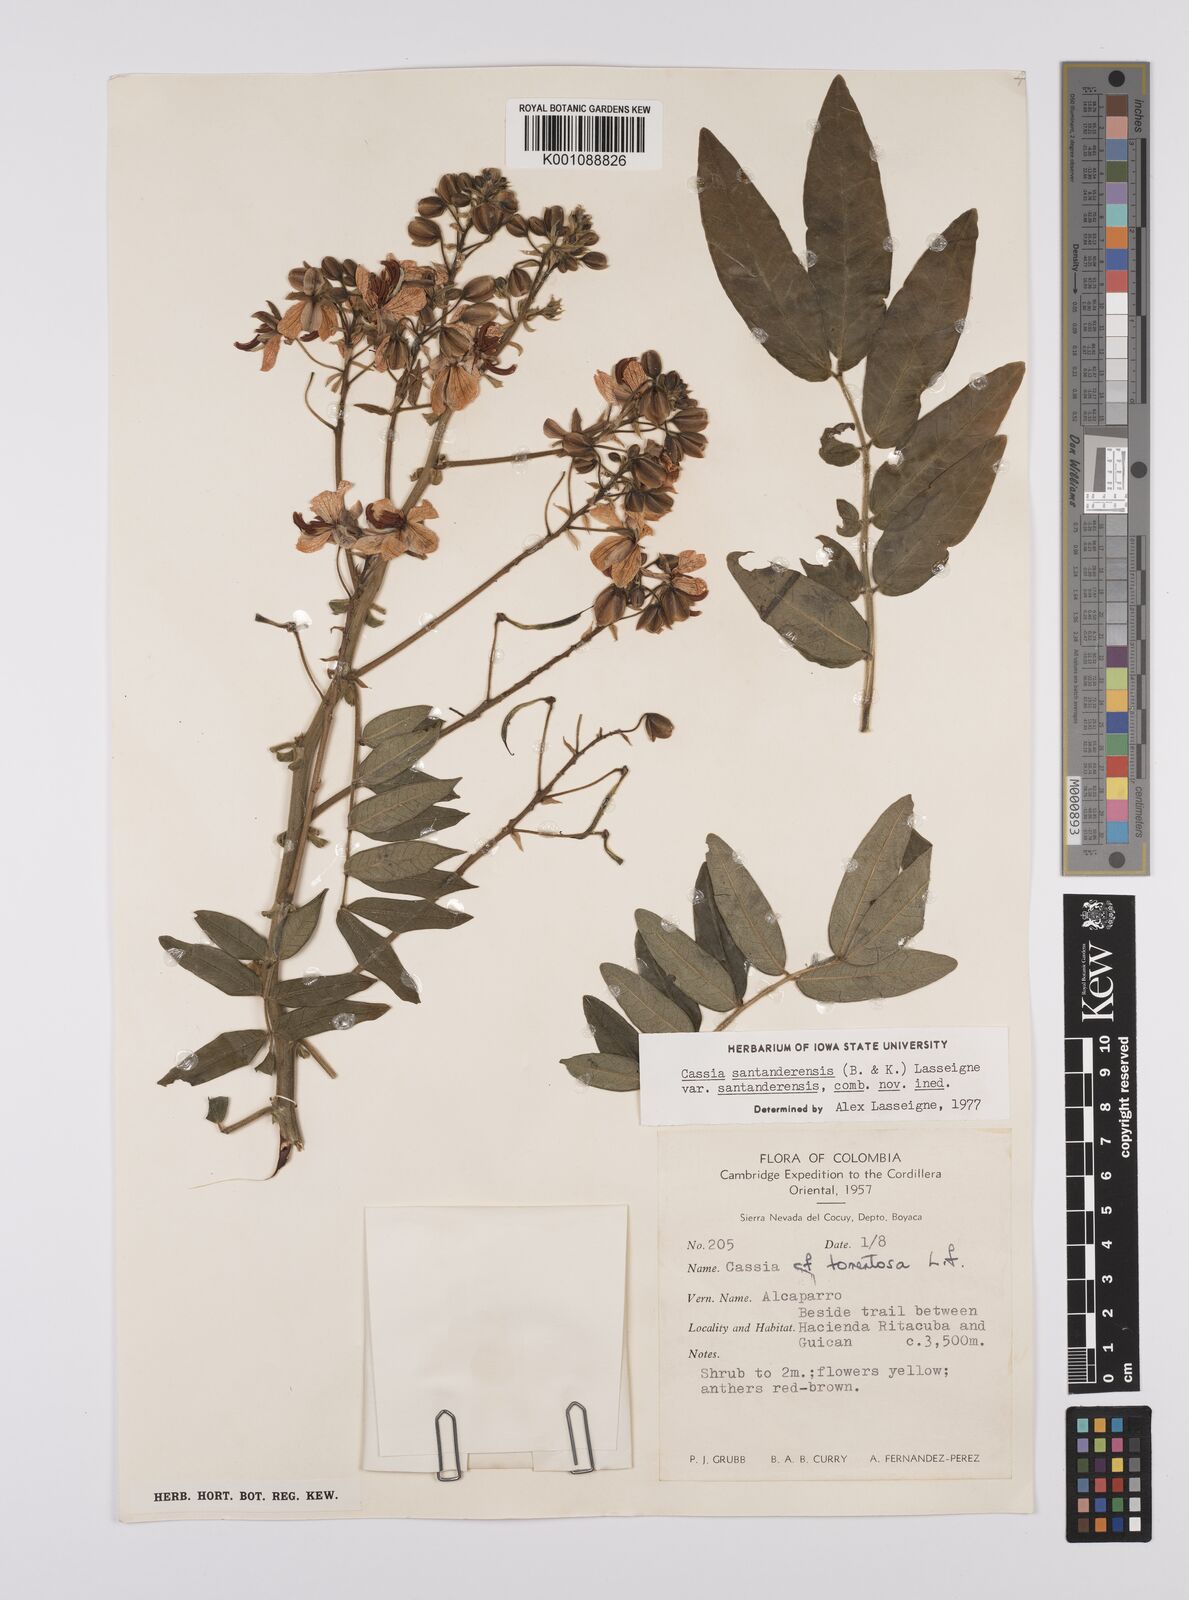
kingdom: Plantae
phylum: Tracheophyta
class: Magnoliopsida
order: Fabales
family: Fabaceae
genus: Senna
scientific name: Senna santanderensis
